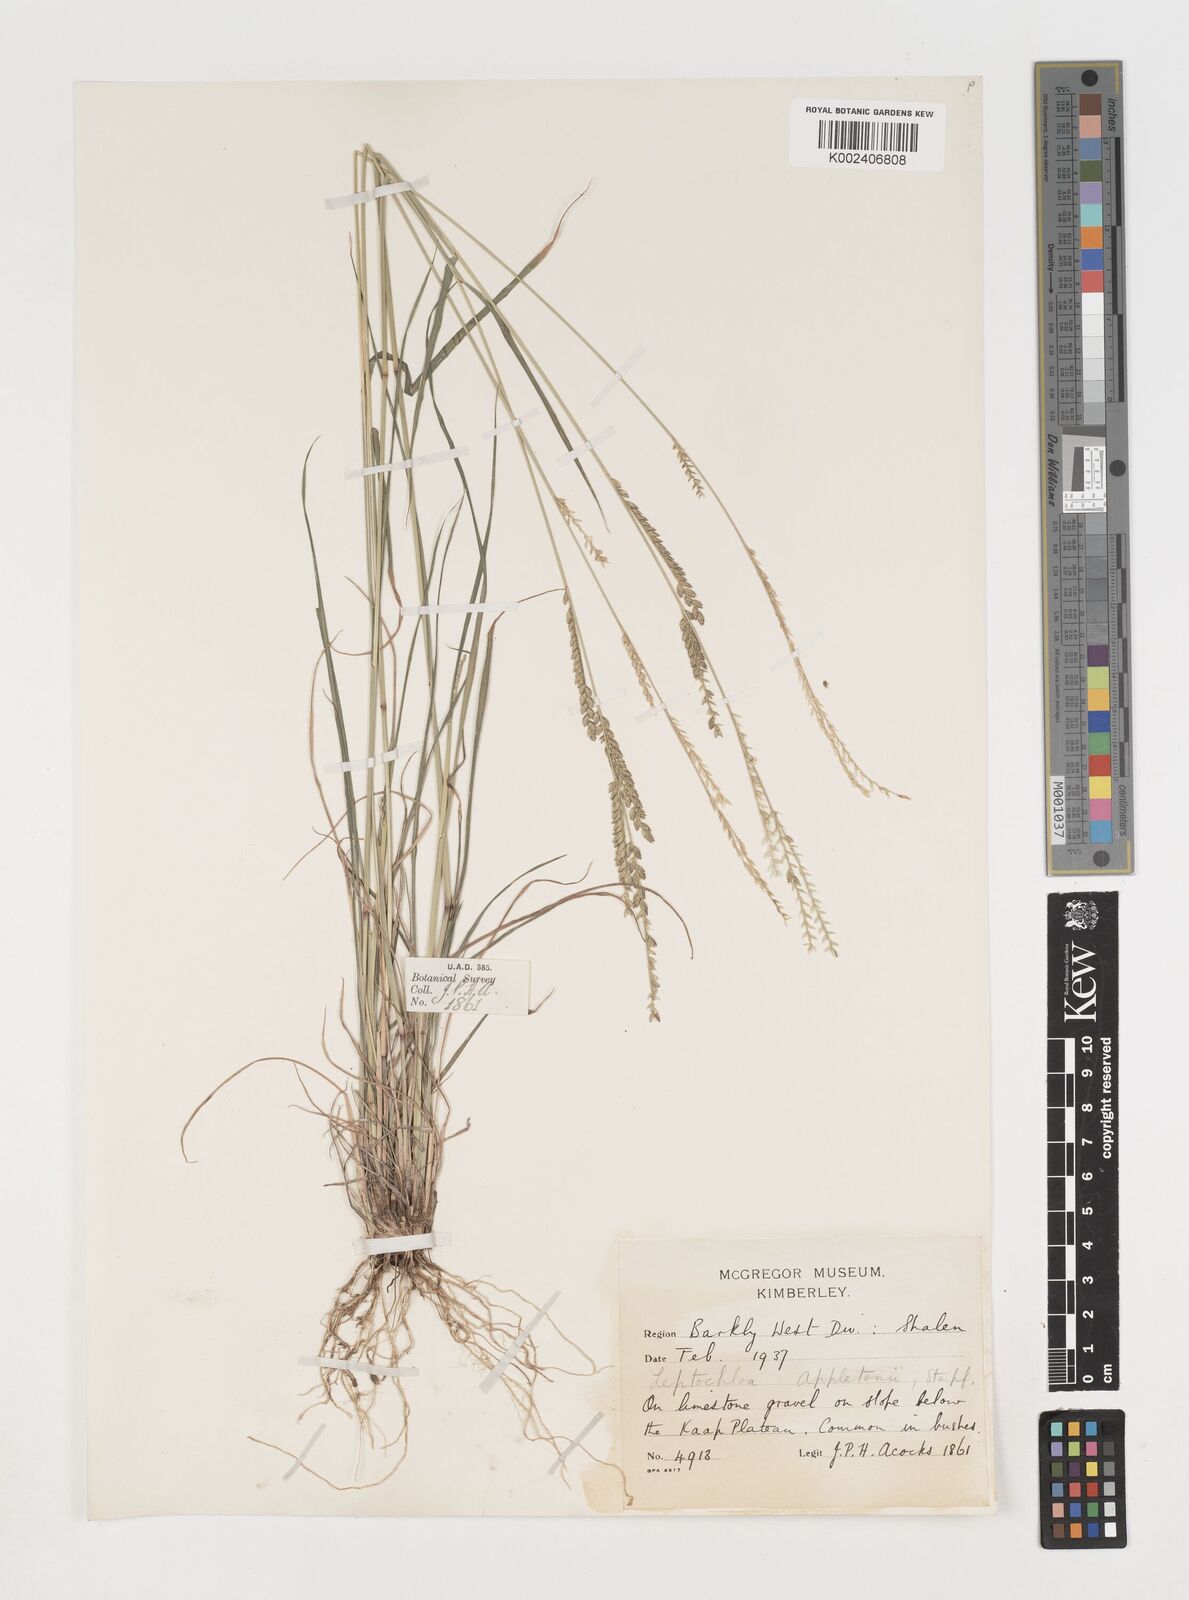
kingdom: Plantae
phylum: Tracheophyta
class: Liliopsida
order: Poales
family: Poaceae
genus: Disakisperma
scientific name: Disakisperma yemenicum
